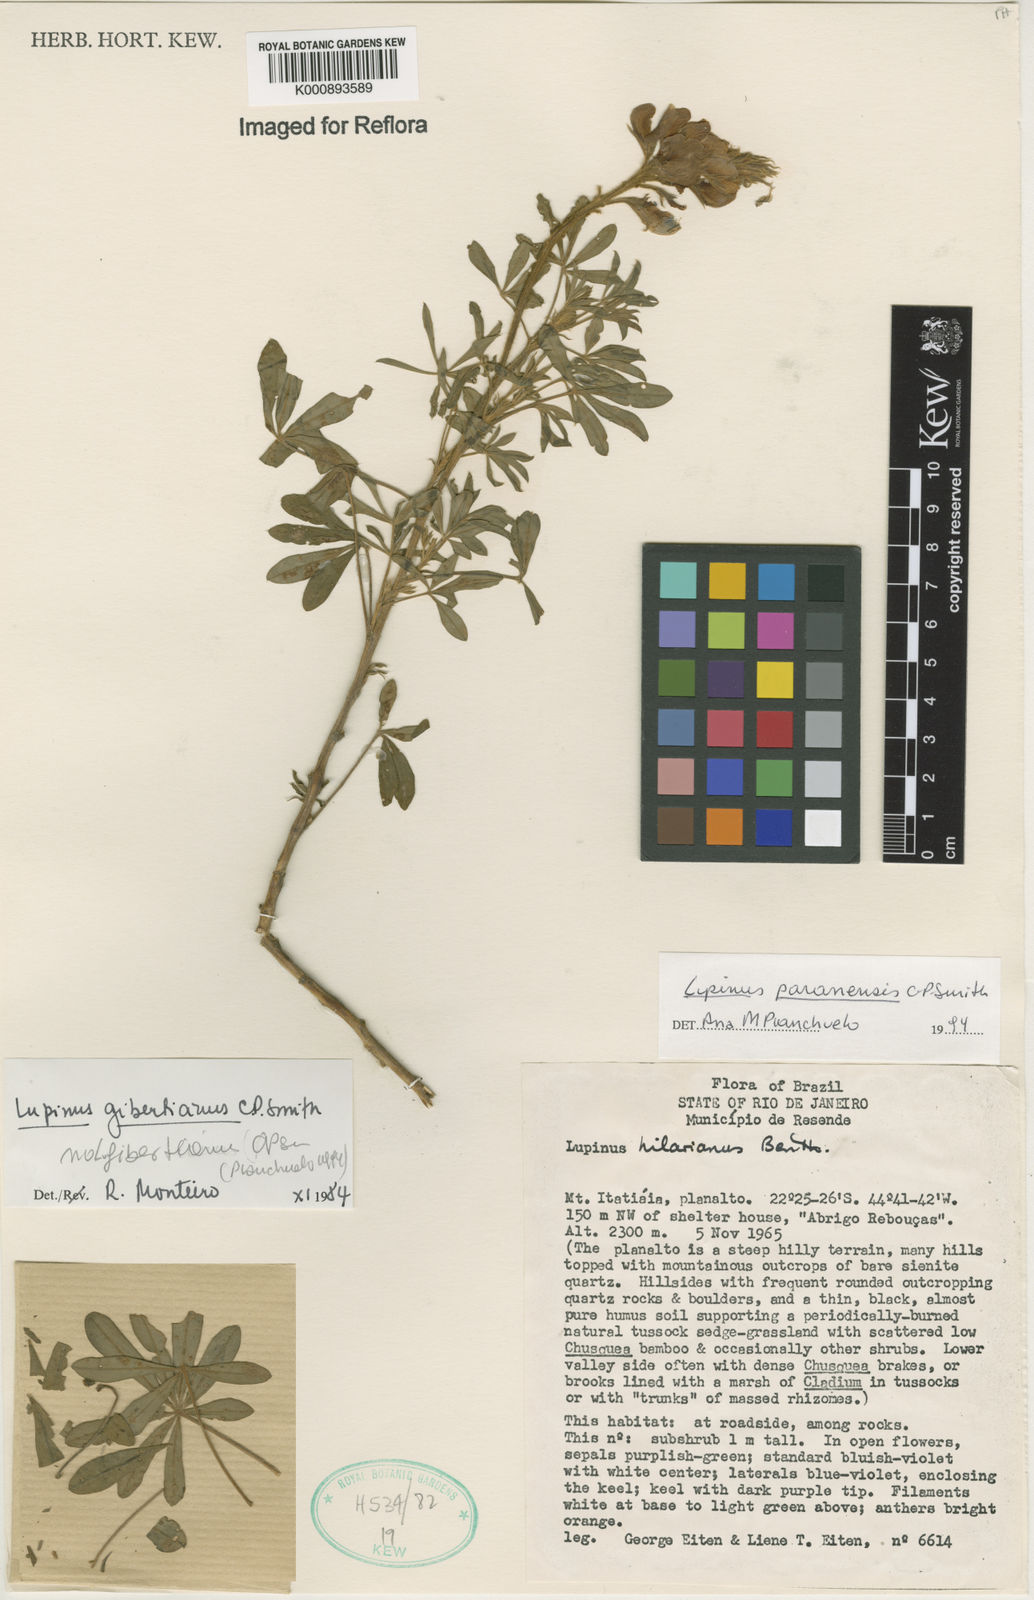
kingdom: Plantae
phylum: Tracheophyta
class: Magnoliopsida
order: Fabales
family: Fabaceae
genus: Lupinus
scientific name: Lupinus paranensis
